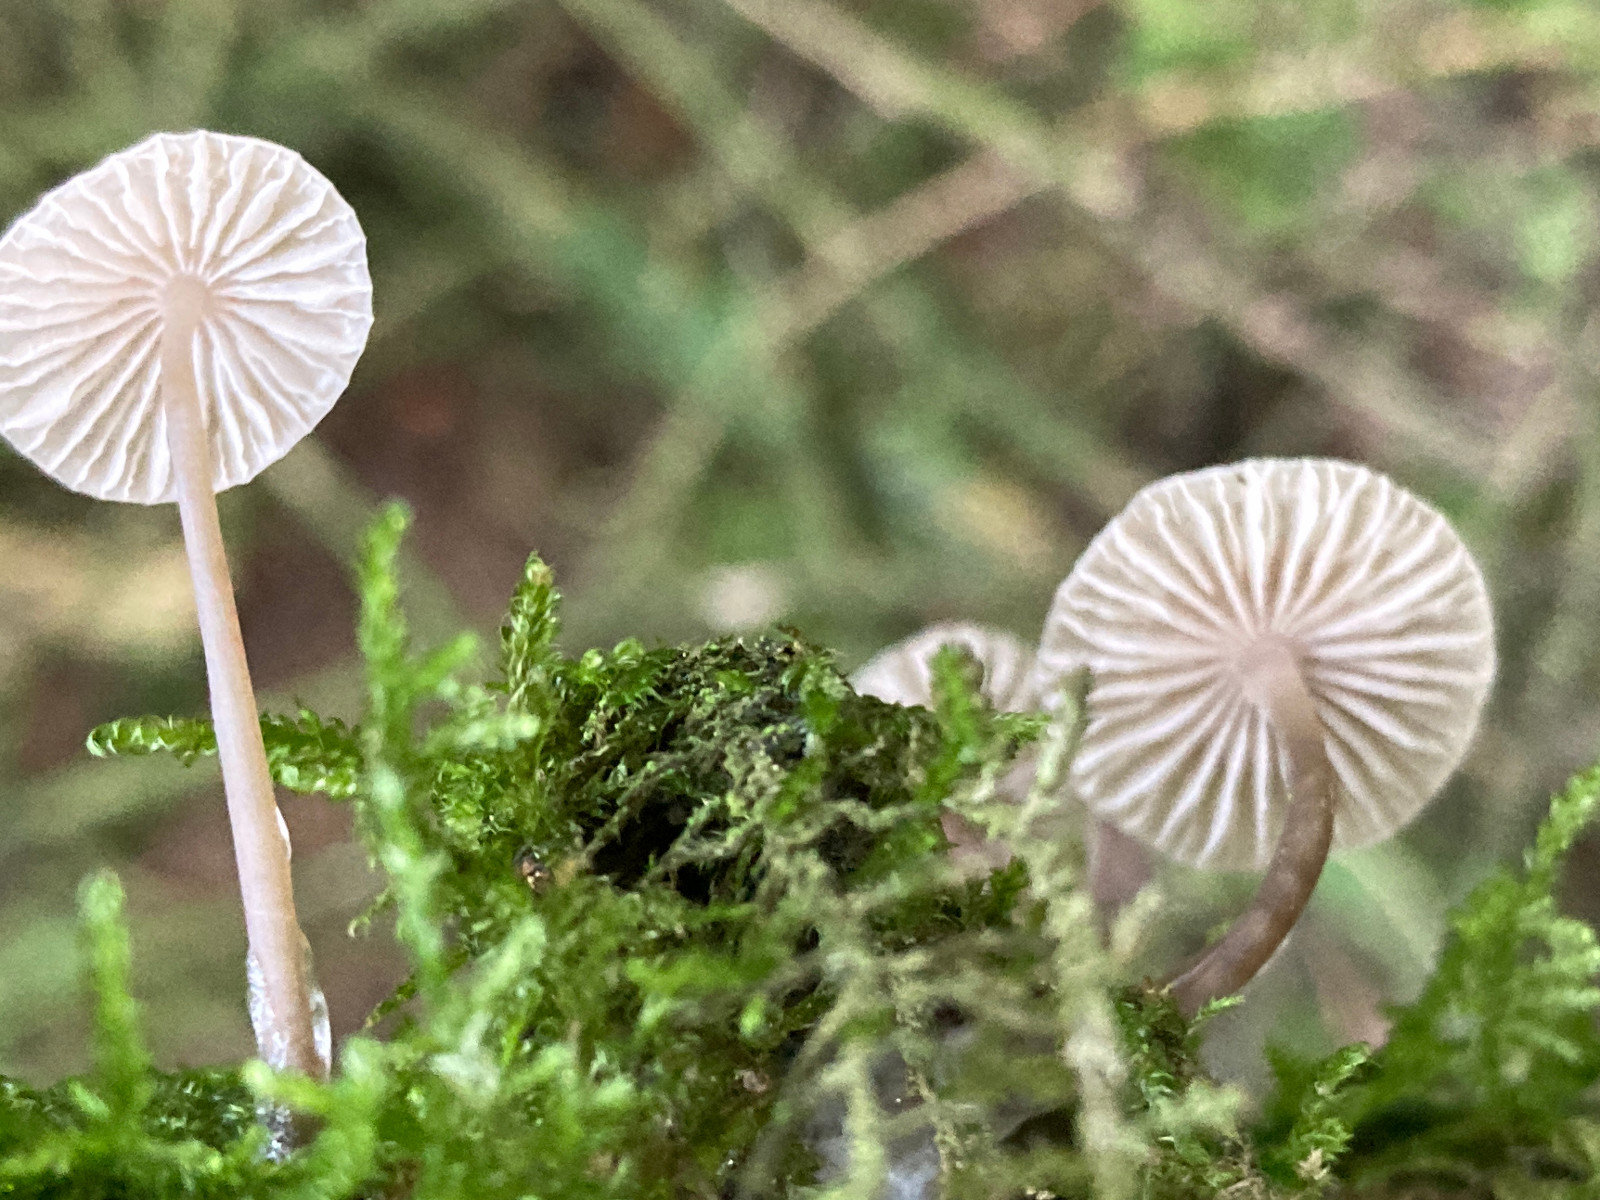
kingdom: Fungi
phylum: Basidiomycota
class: Agaricomycetes
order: Agaricales
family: Mycenaceae
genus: Mycena
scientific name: Mycena metata
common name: rødlig huesvamp
